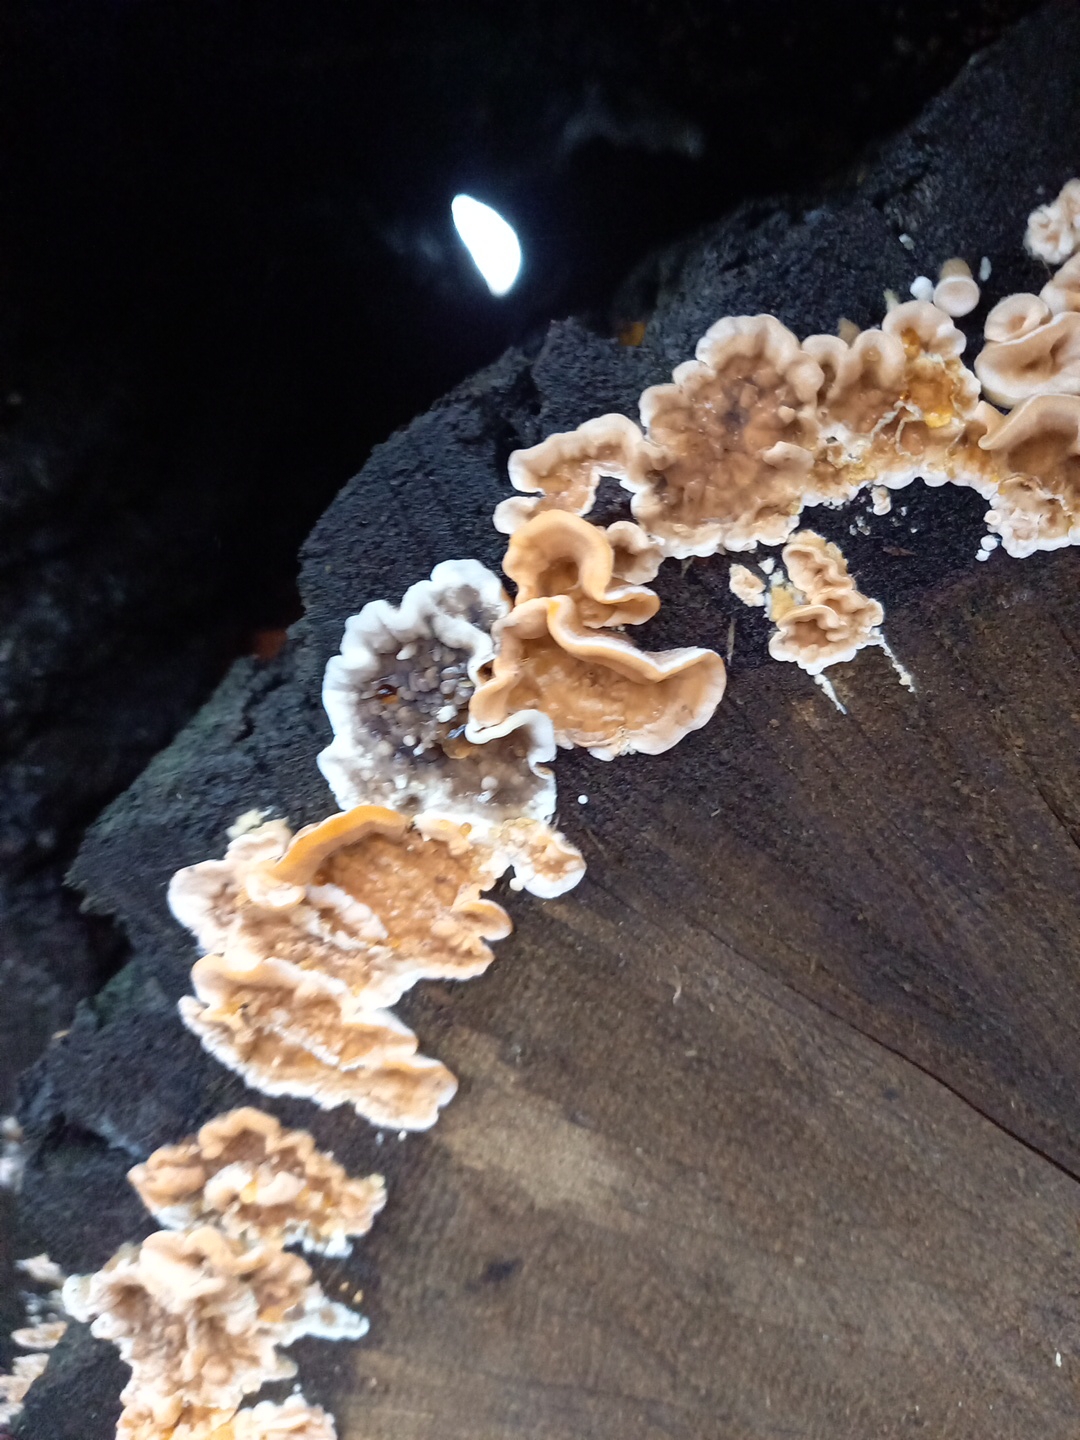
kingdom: Fungi
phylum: Basidiomycota
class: Agaricomycetes
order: Russulales
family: Stereaceae
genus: Stereum
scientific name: Stereum hirsutum
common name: håret lædersvamp
